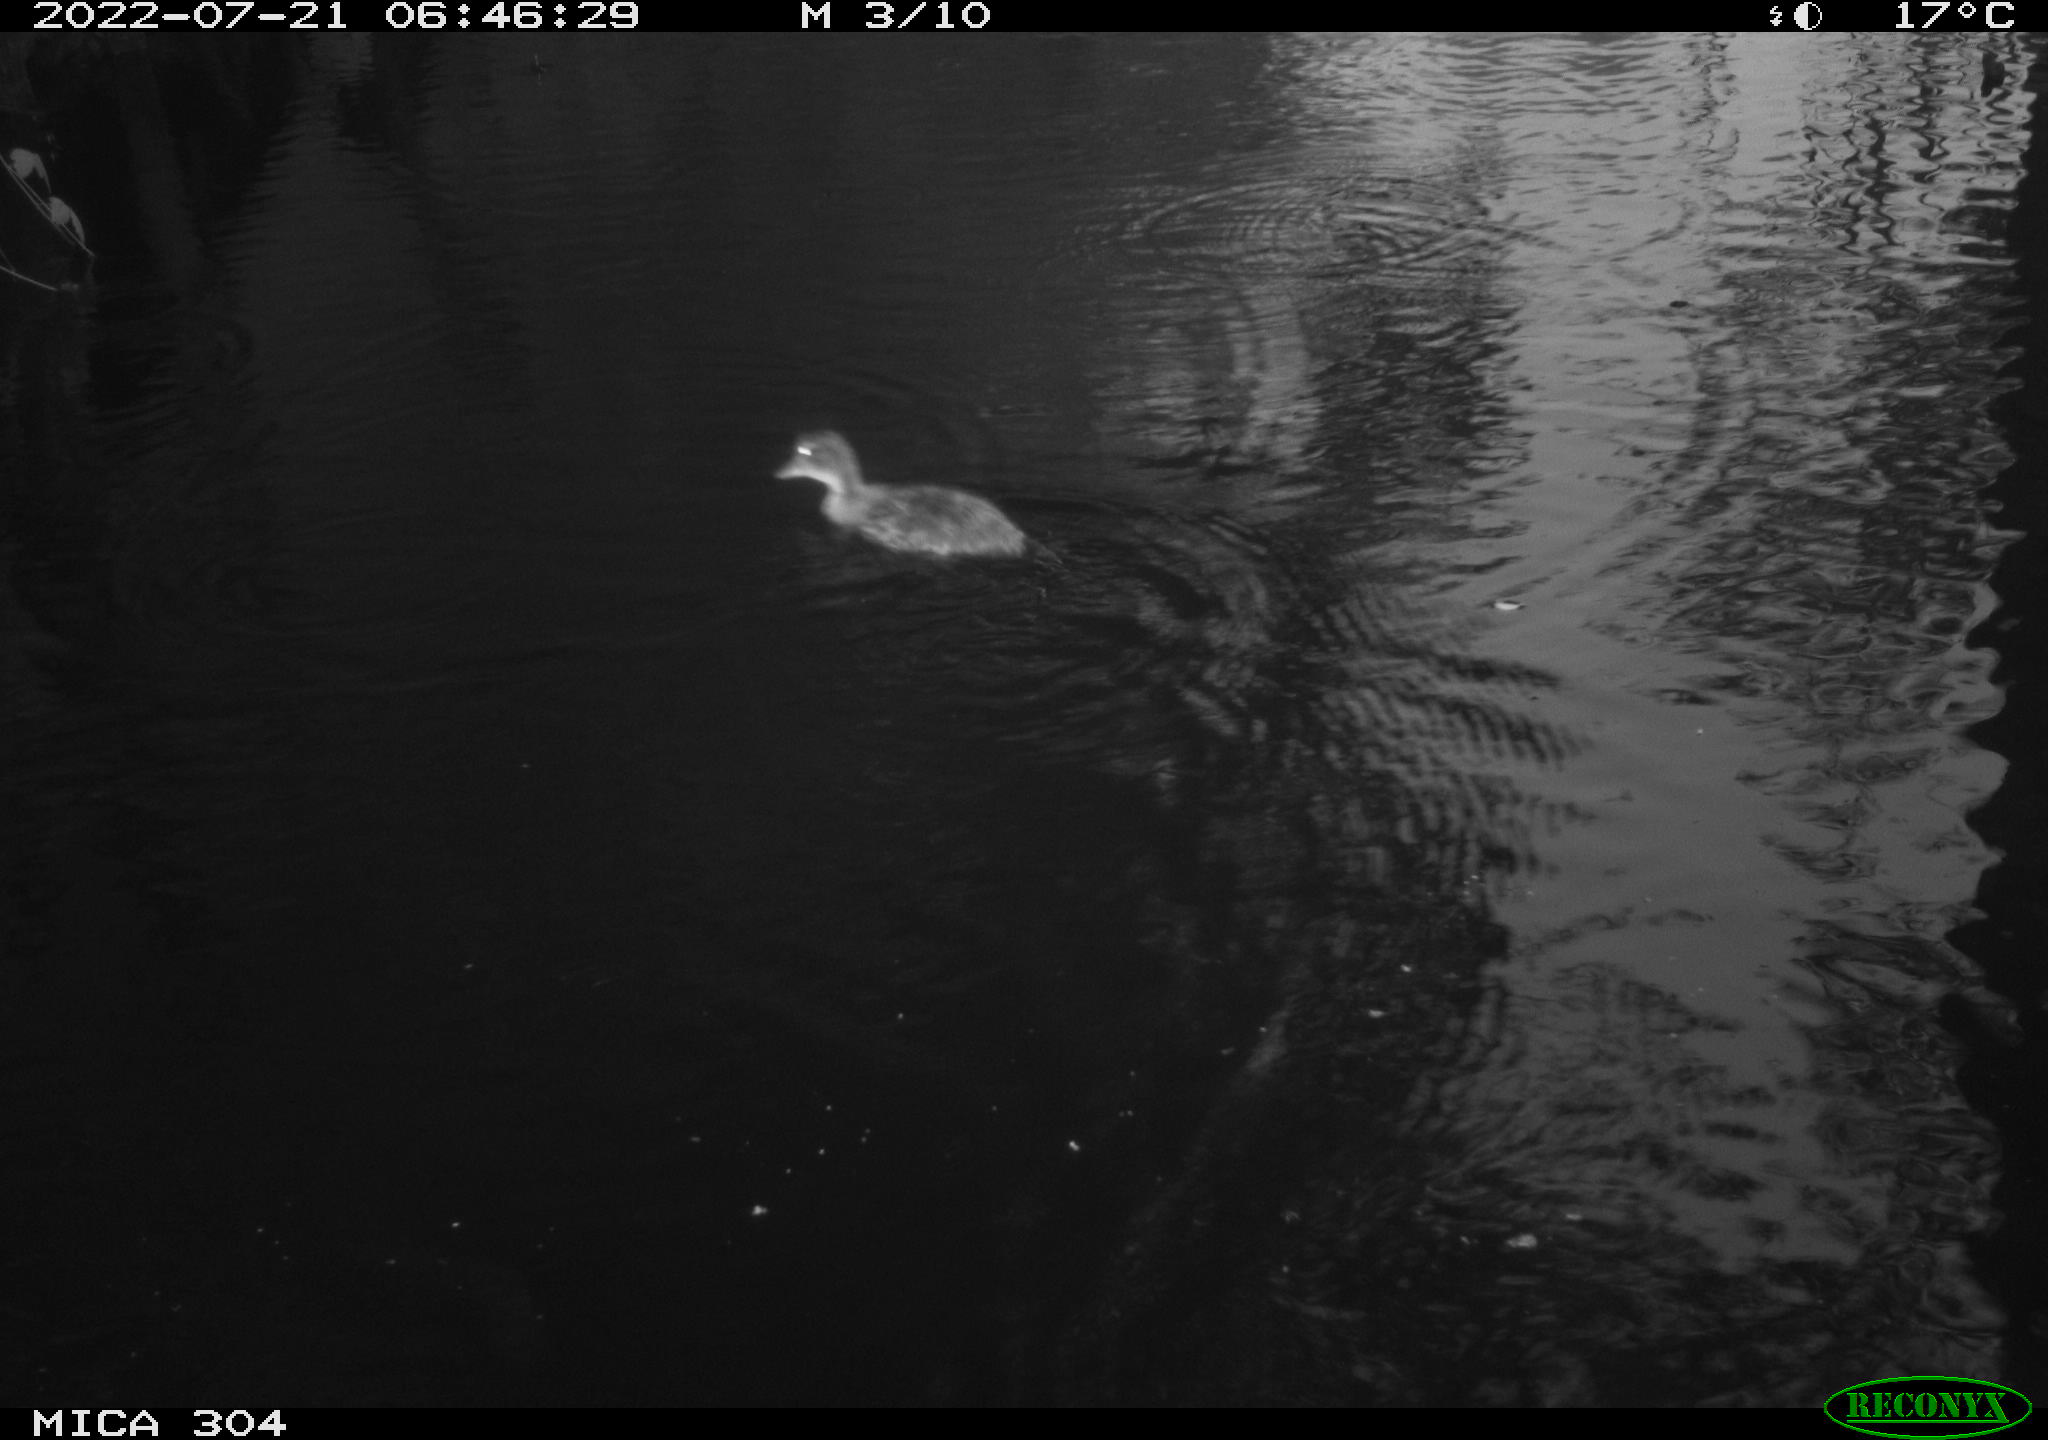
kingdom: Animalia
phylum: Chordata
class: Aves
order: Anseriformes
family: Anatidae
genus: Anas
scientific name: Anas platyrhynchos
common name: Mallard
